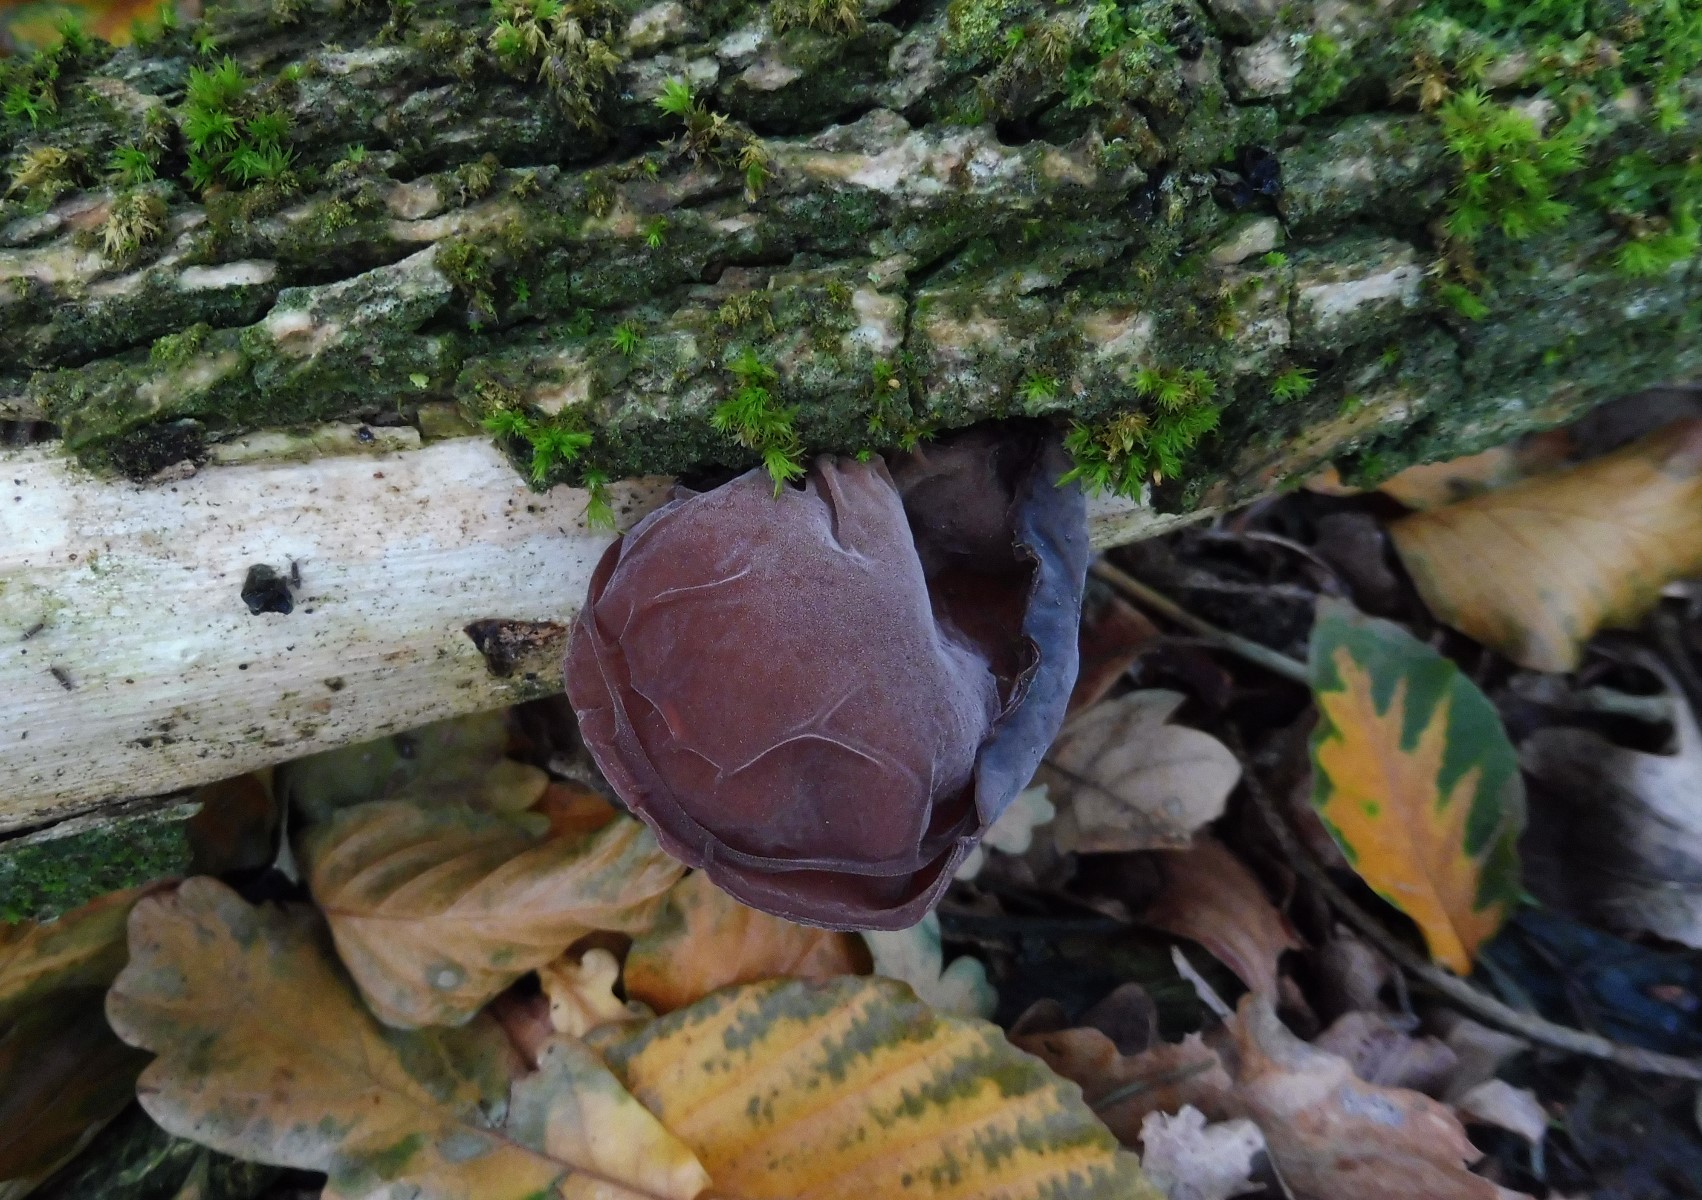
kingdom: Fungi
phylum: Basidiomycota
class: Agaricomycetes
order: Auriculariales
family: Auriculariaceae
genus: Auricularia
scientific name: Auricularia auricula-judae
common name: almindelig judasøre
